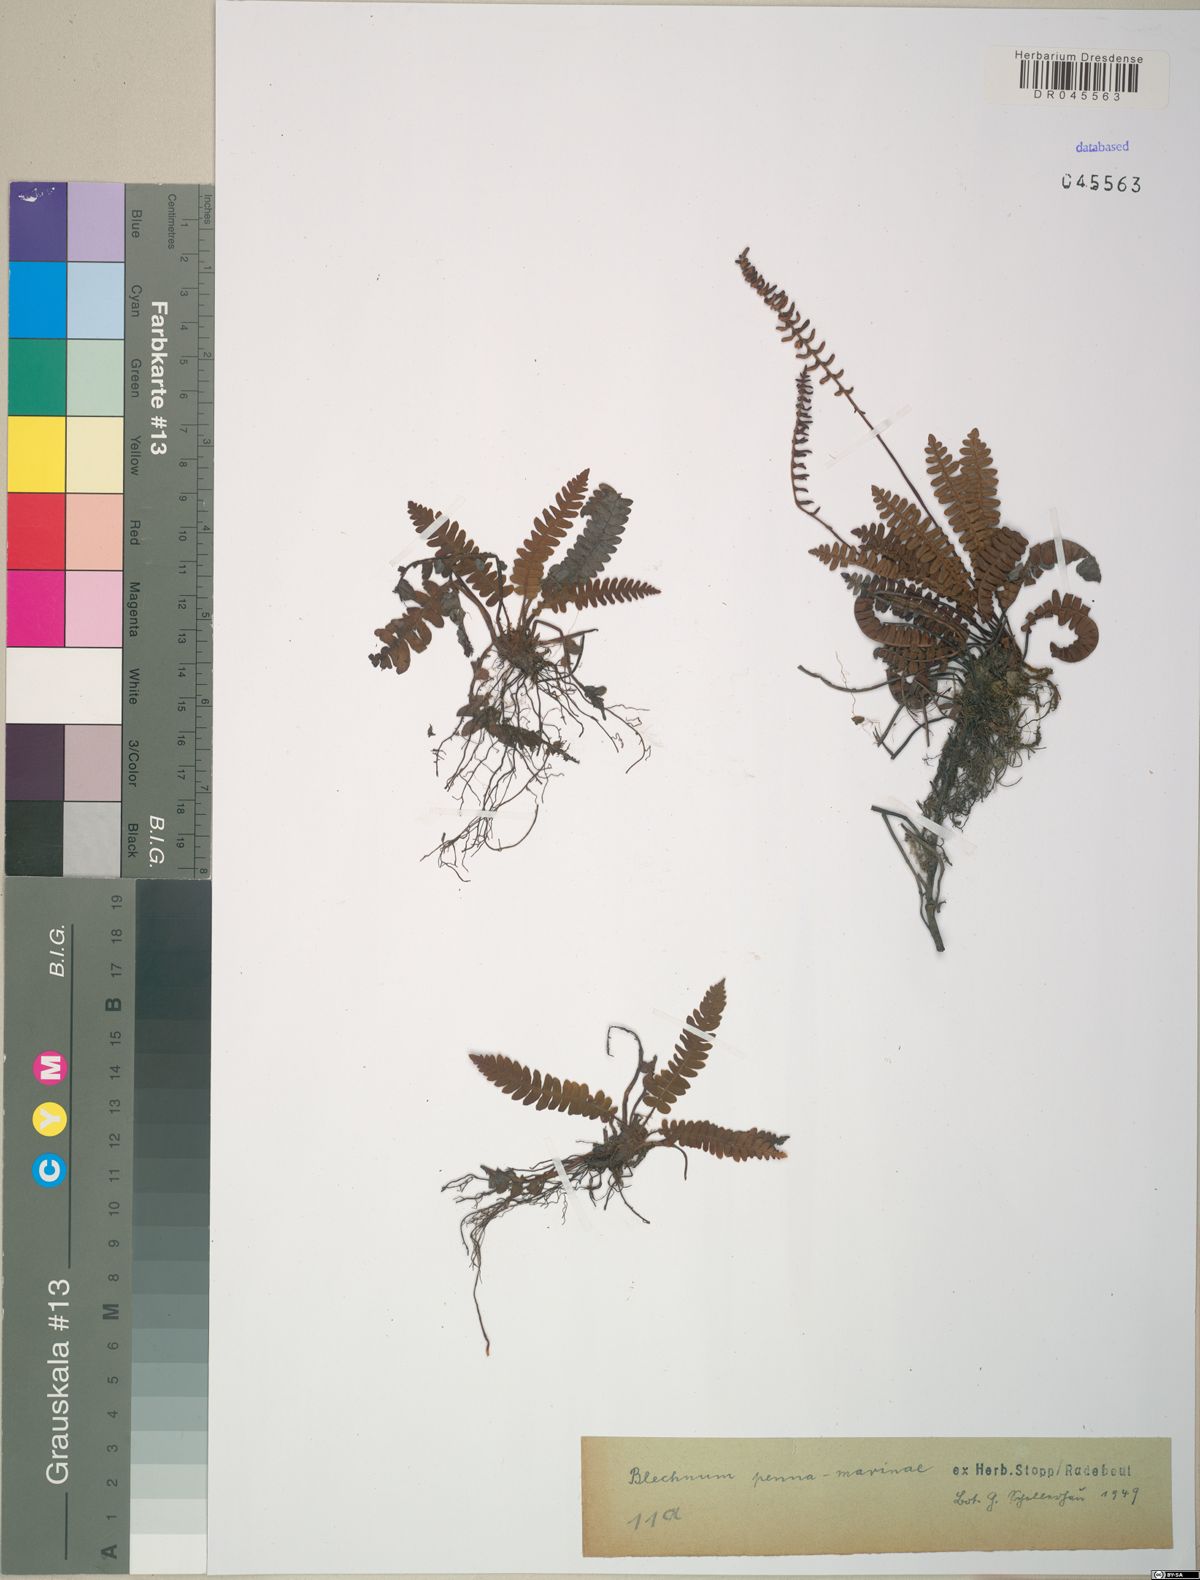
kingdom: Plantae
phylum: Tracheophyta
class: Polypodiopsida
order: Polypodiales
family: Blechnaceae
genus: Austroblechnum
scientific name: Austroblechnum penna-marina
